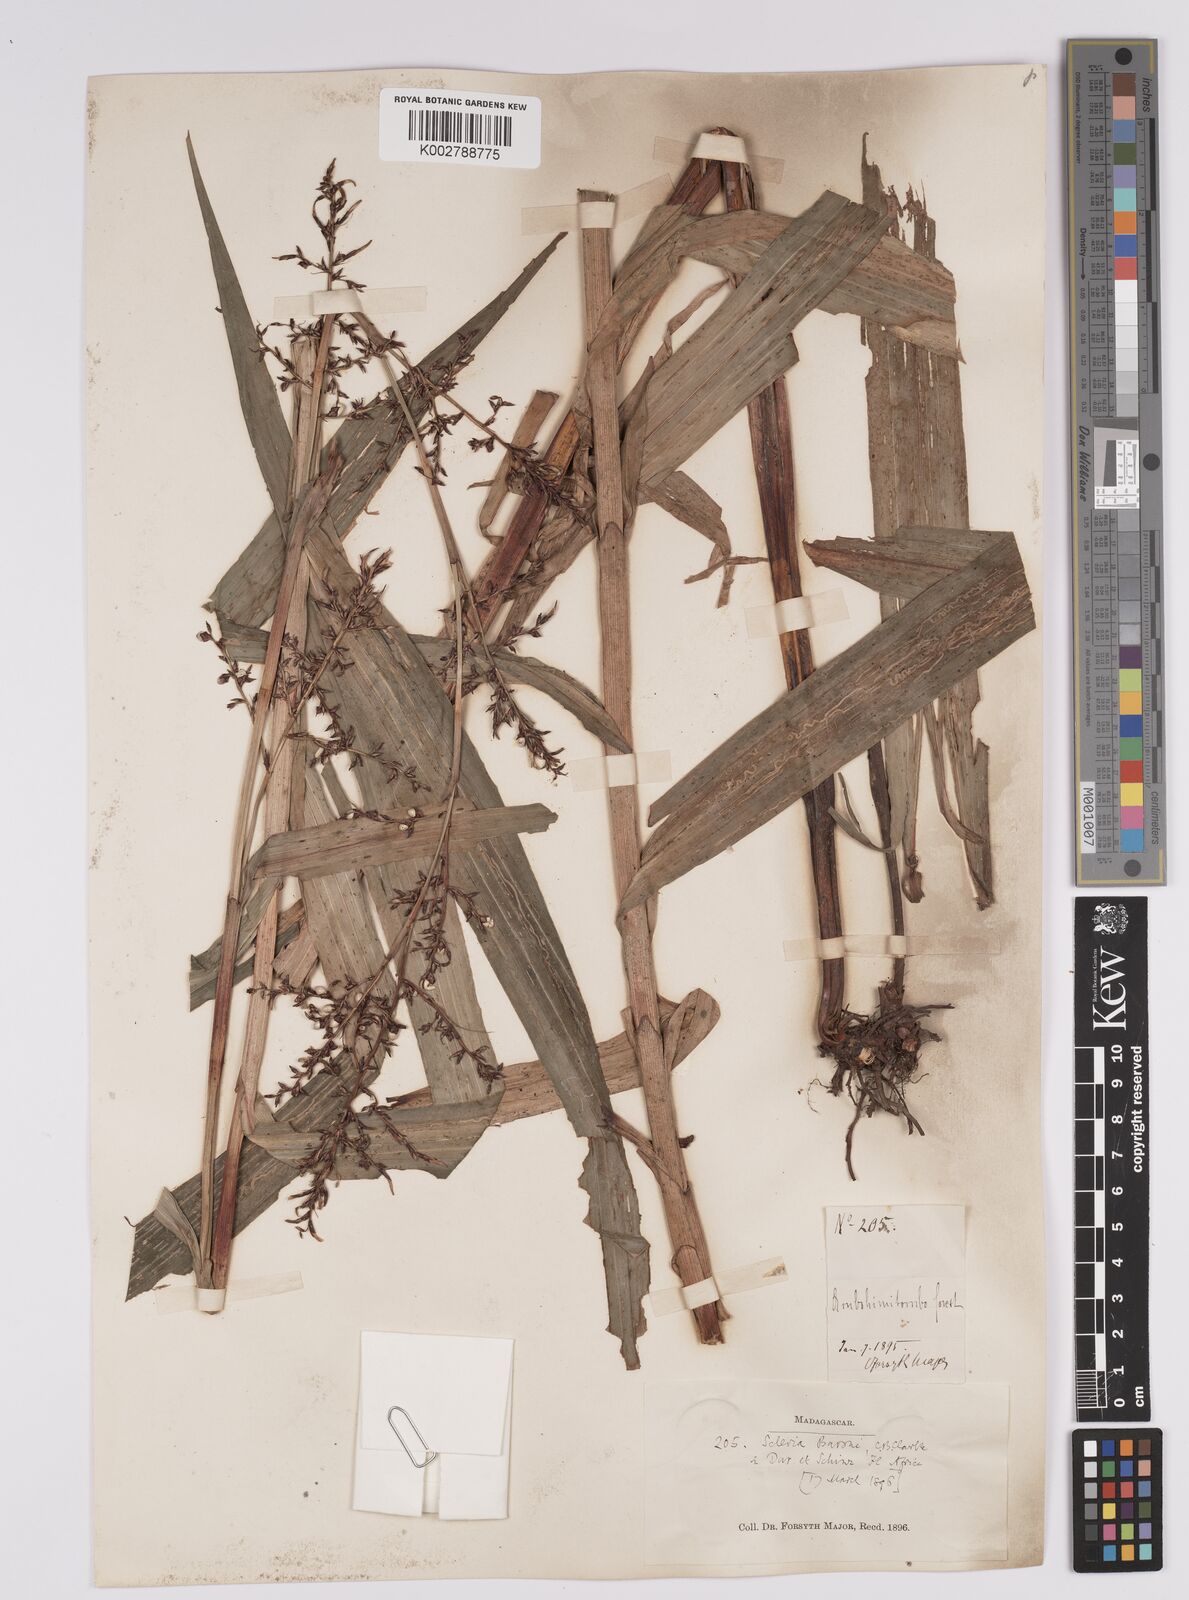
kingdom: Plantae
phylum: Tracheophyta
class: Liliopsida
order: Poales
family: Cyperaceae
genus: Scleria
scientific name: Scleria baronii
